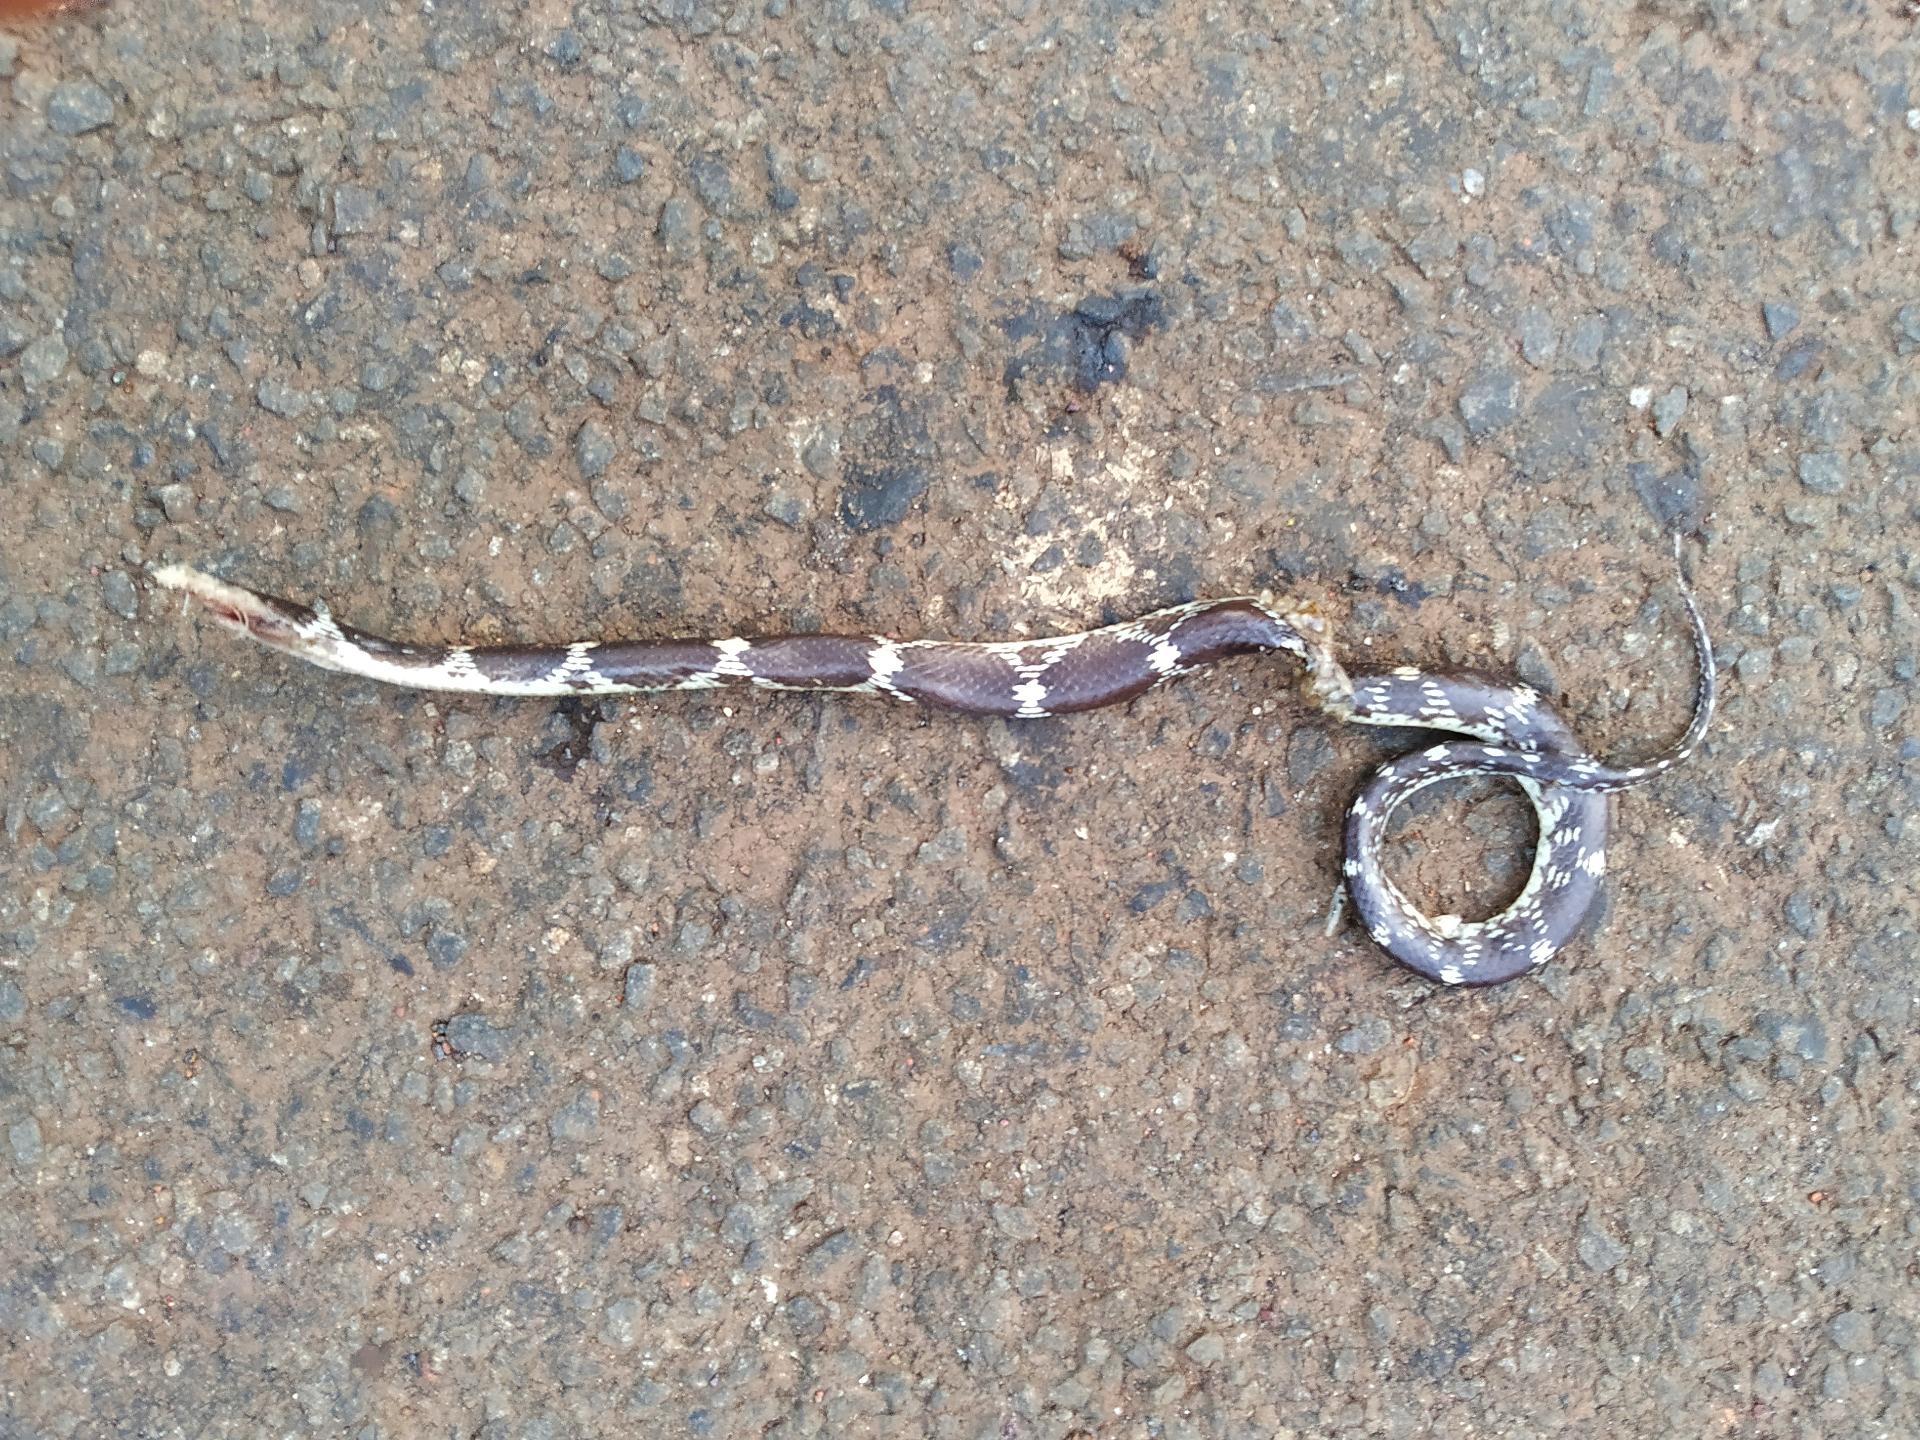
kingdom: Animalia
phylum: Chordata
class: Squamata
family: Colubridae
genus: Lycodon
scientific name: Lycodon
